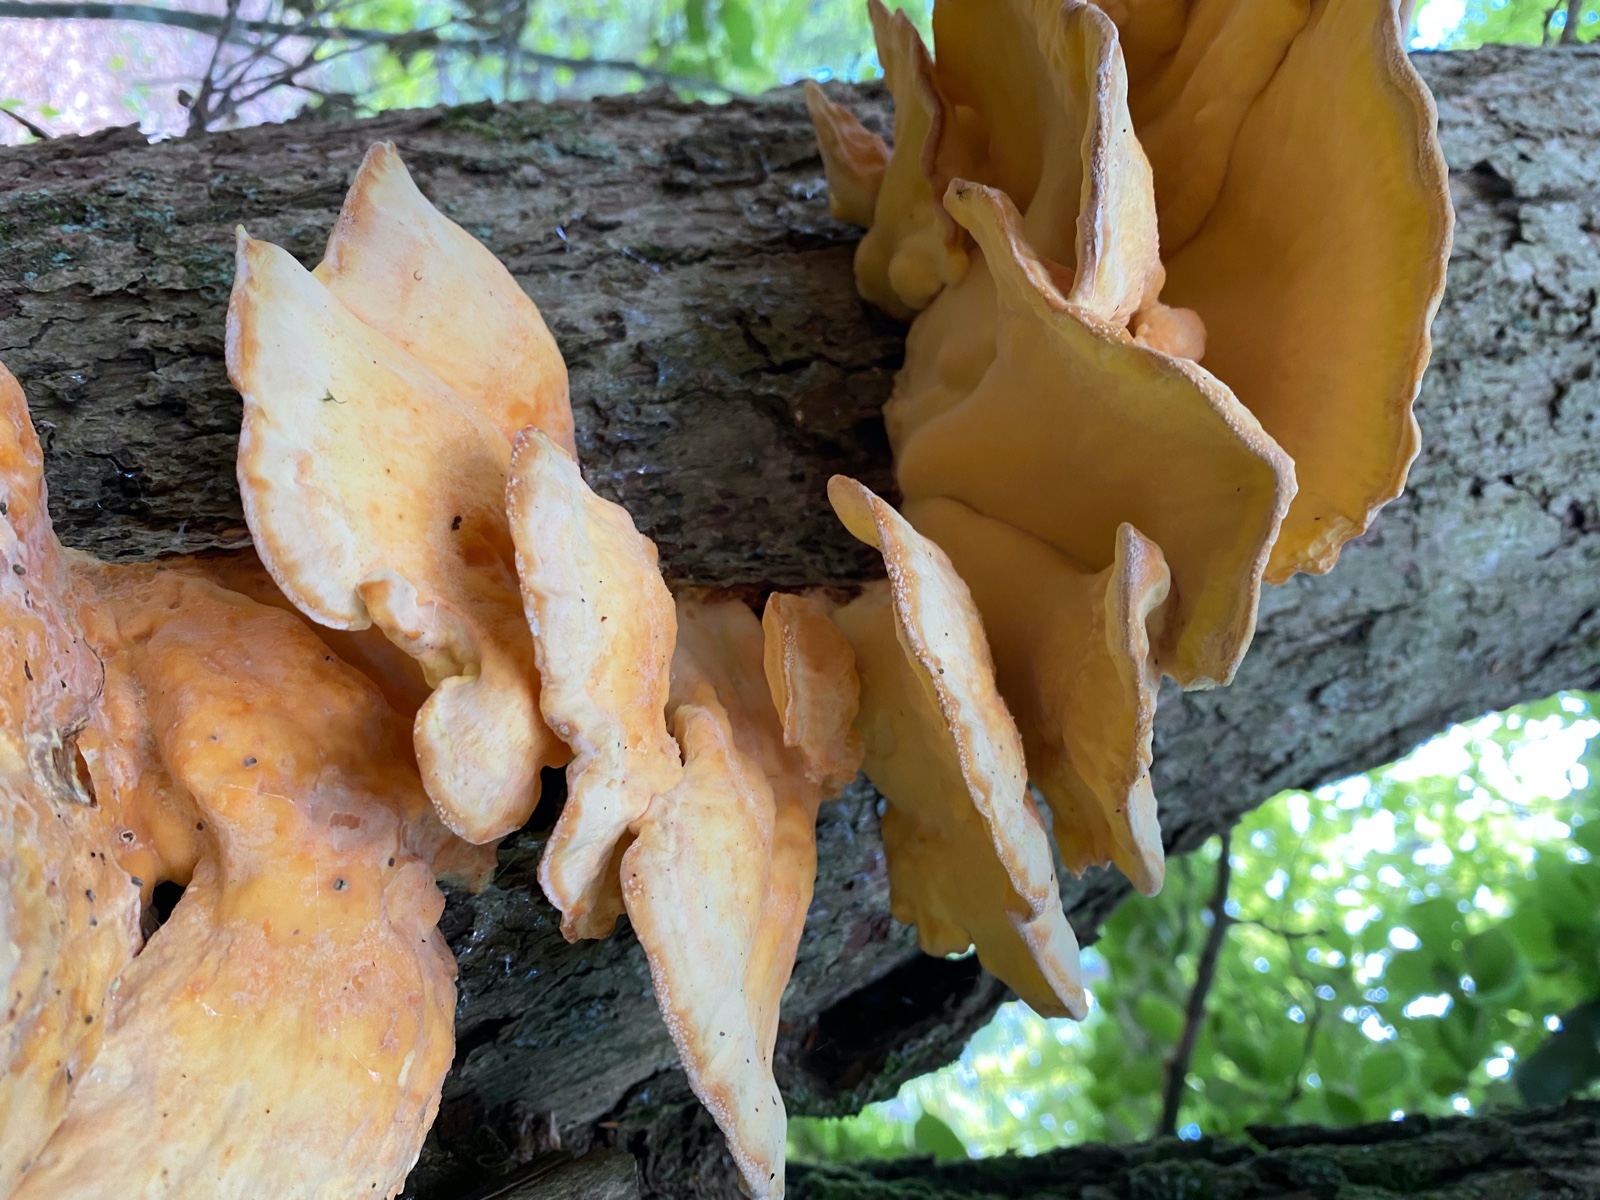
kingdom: Fungi
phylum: Basidiomycota
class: Agaricomycetes
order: Polyporales
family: Laetiporaceae
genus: Laetiporus
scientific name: Laetiporus sulphureus
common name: svovlporesvamp
